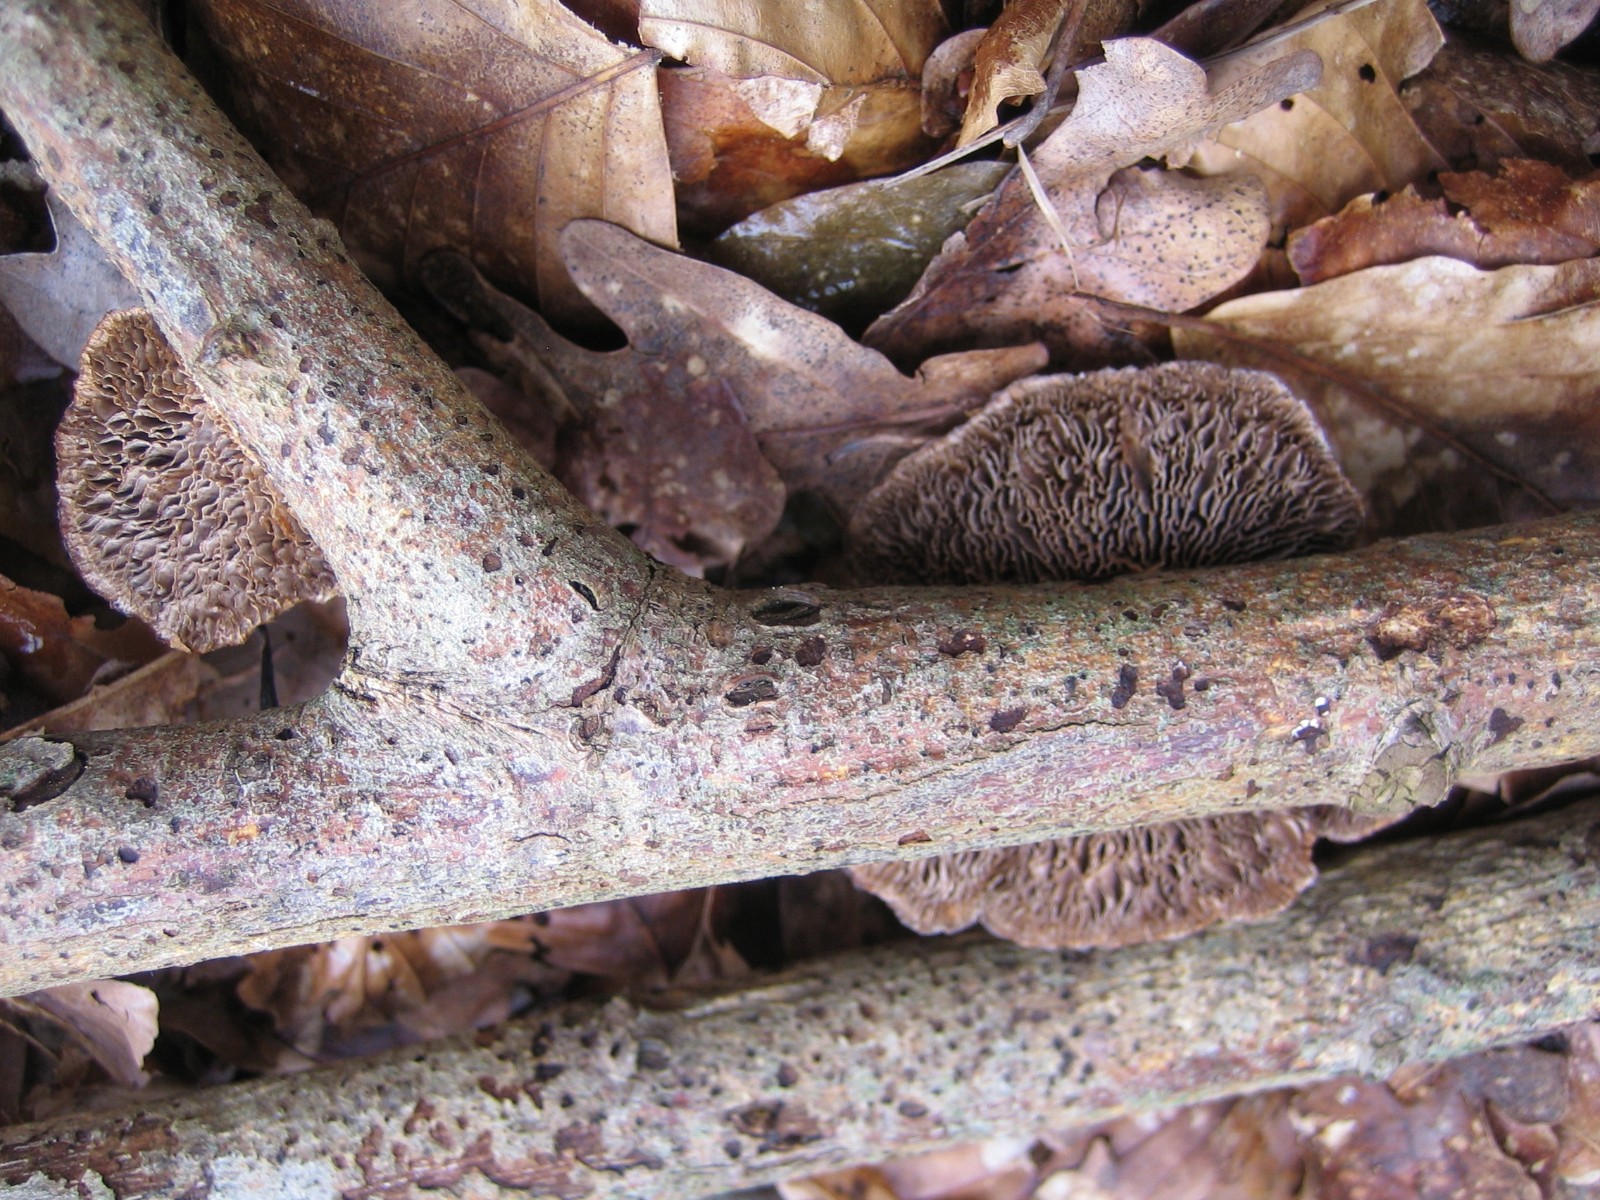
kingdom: Fungi
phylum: Basidiomycota
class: Agaricomycetes
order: Polyporales
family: Polyporaceae
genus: Daedaleopsis
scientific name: Daedaleopsis confragosa
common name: rødmende læderporesvamp
